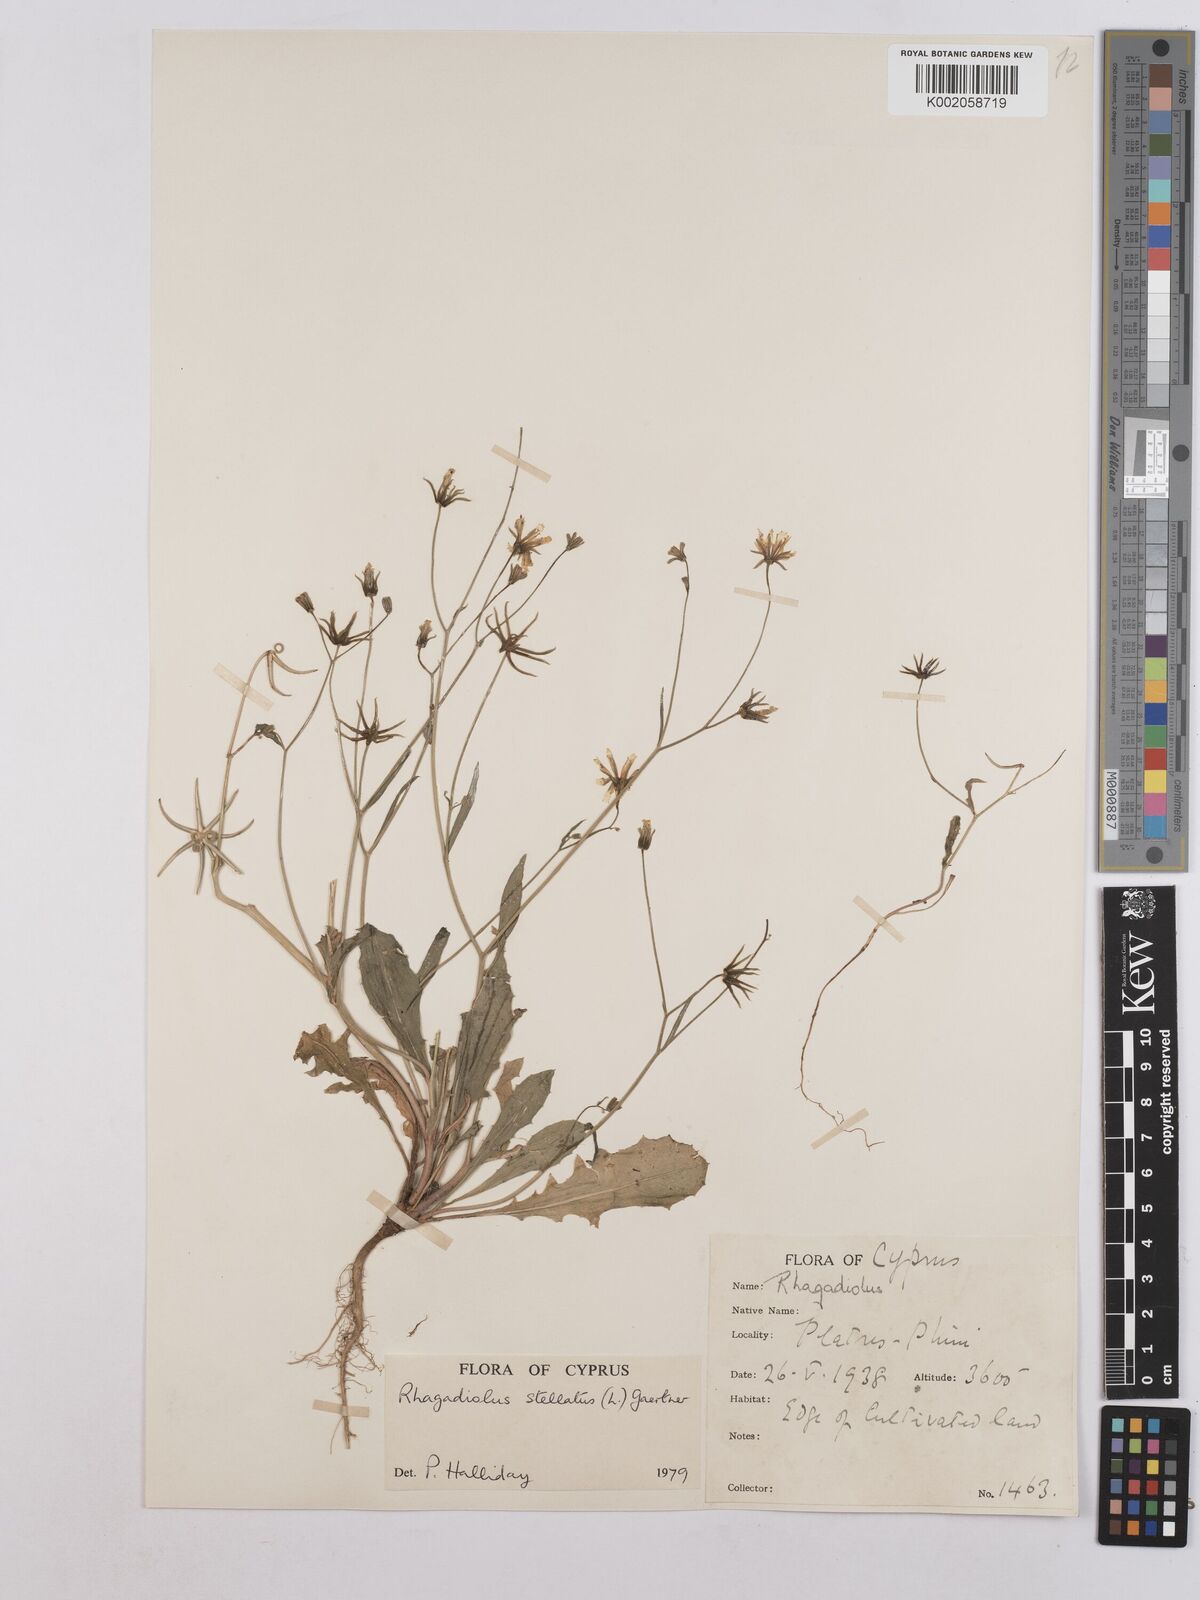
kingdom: Plantae
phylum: Tracheophyta
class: Magnoliopsida
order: Asterales
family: Asteraceae
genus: Rhagadiolus
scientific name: Rhagadiolus stellatus
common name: Star hawkbit
